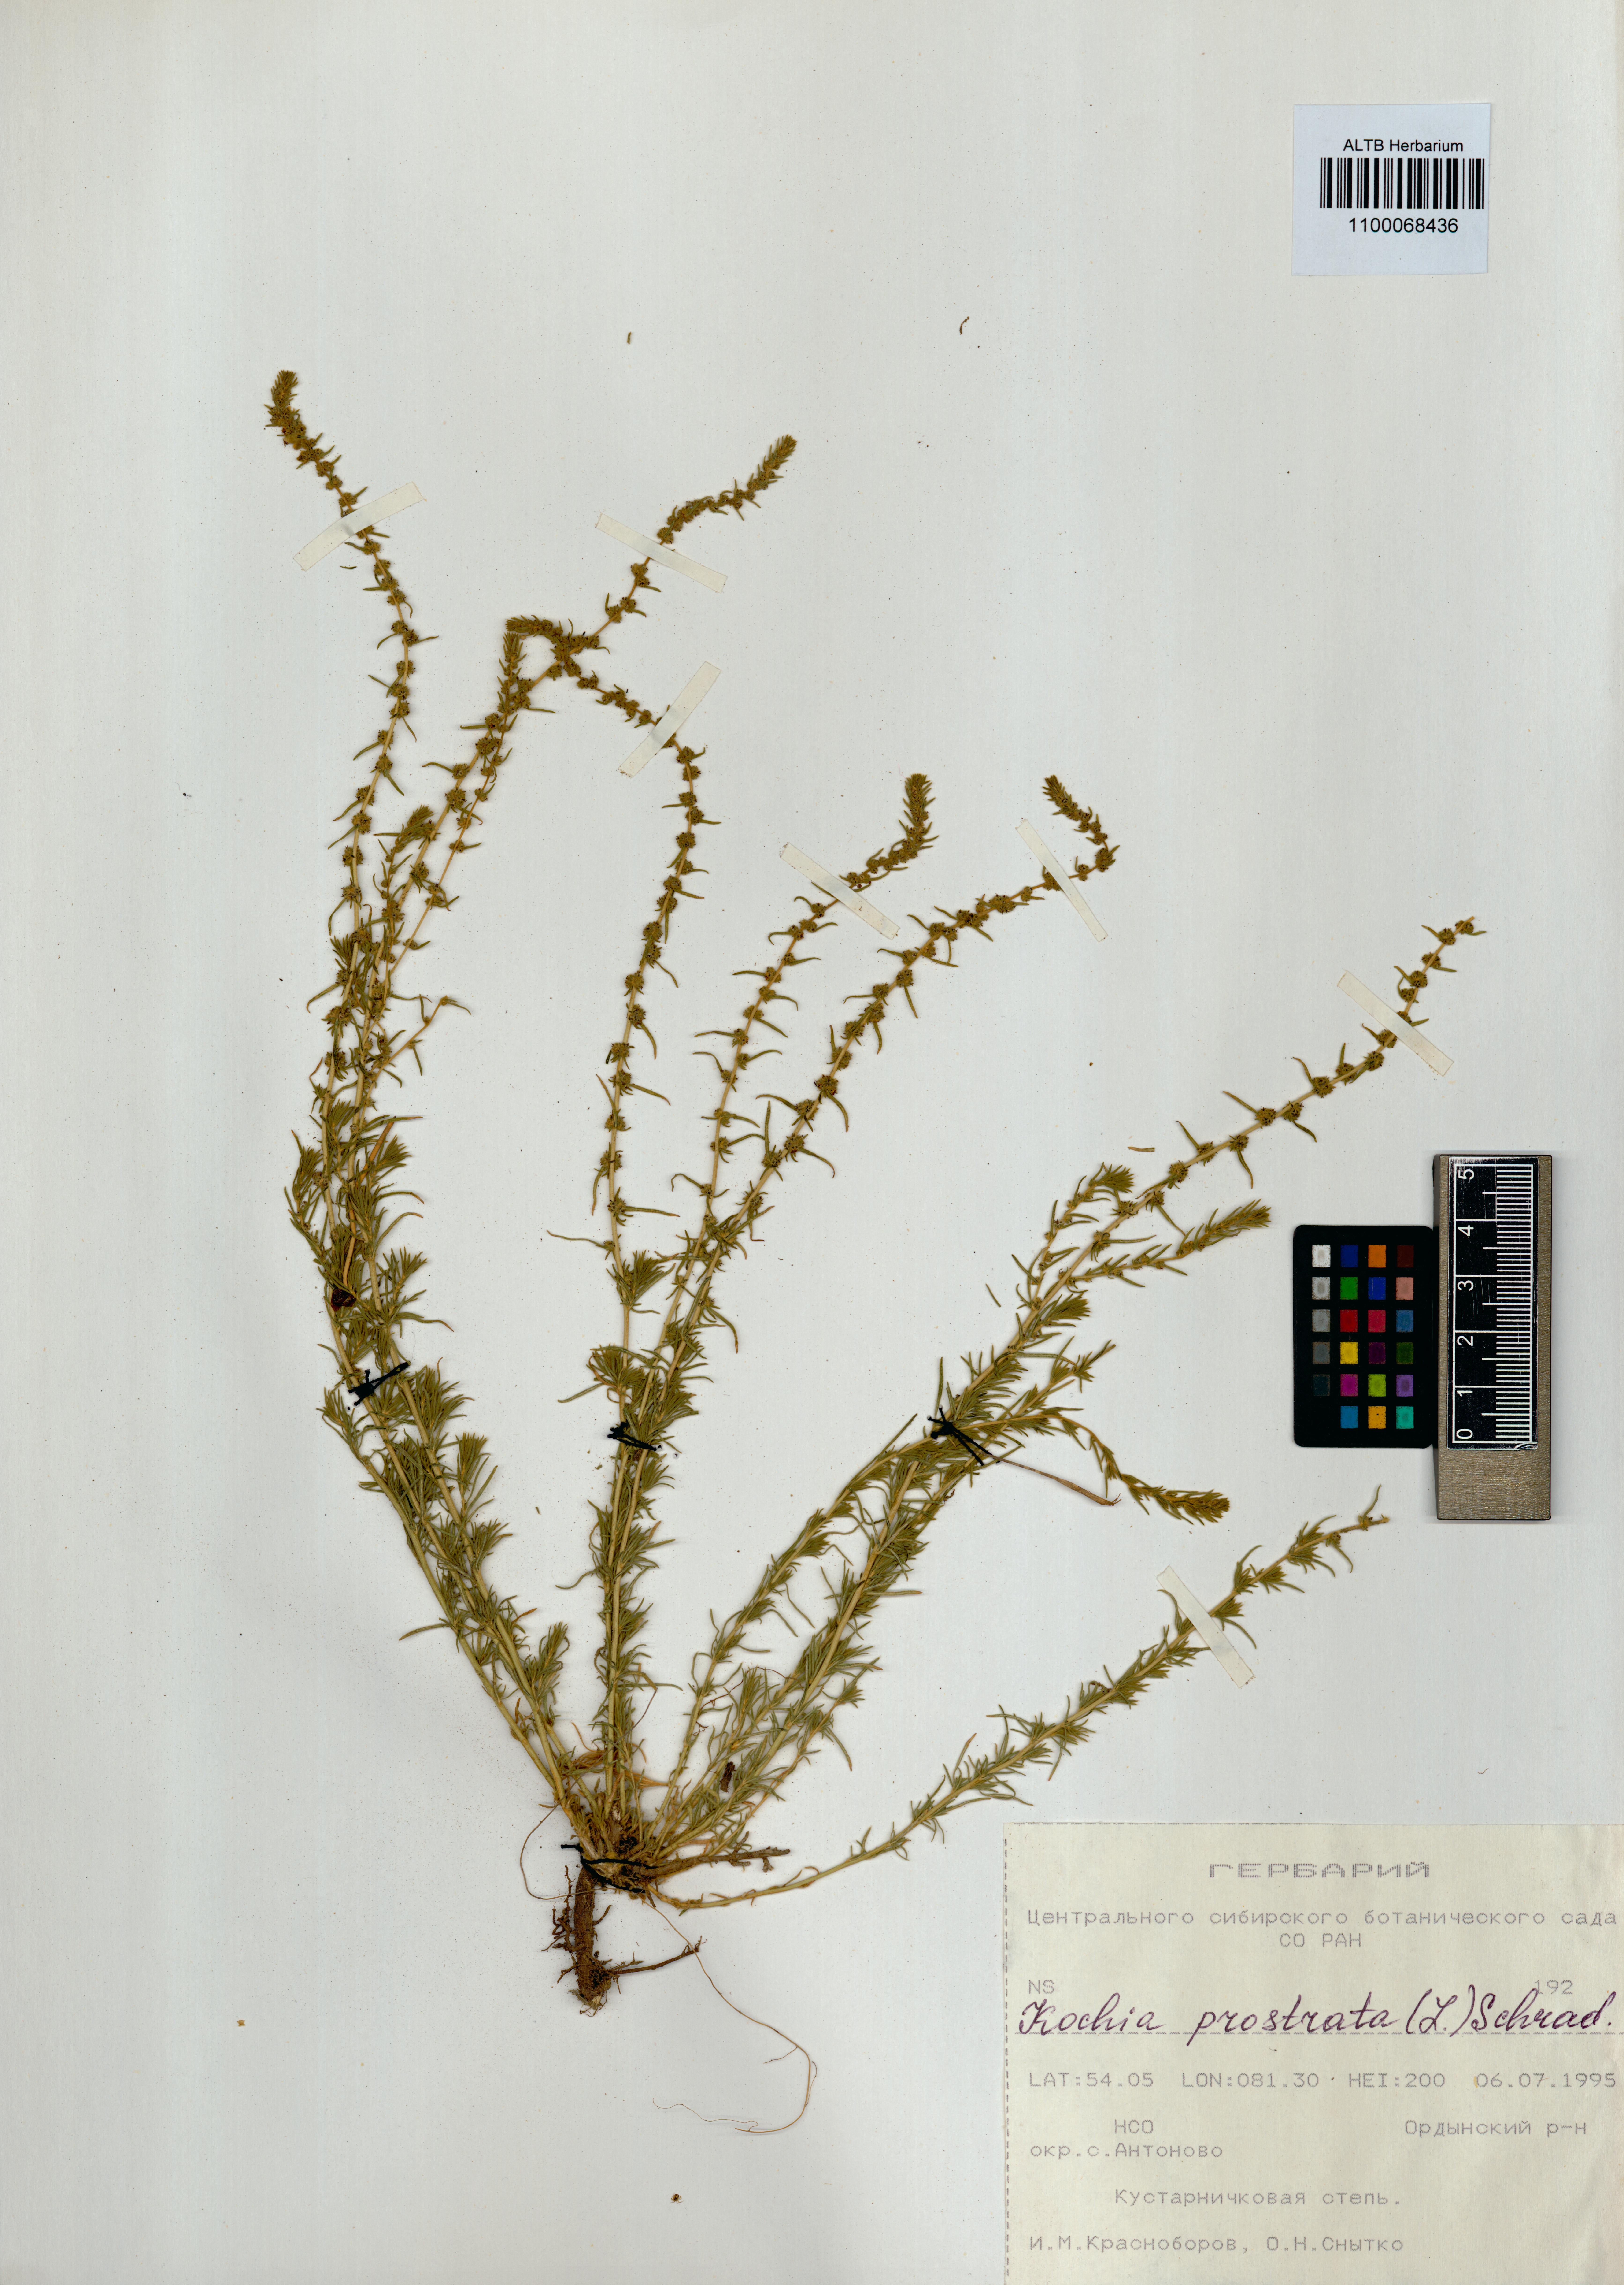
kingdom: Plantae
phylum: Tracheophyta
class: Magnoliopsida
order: Caryophyllales
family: Amaranthaceae
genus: Bassia
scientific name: Bassia prostrata
